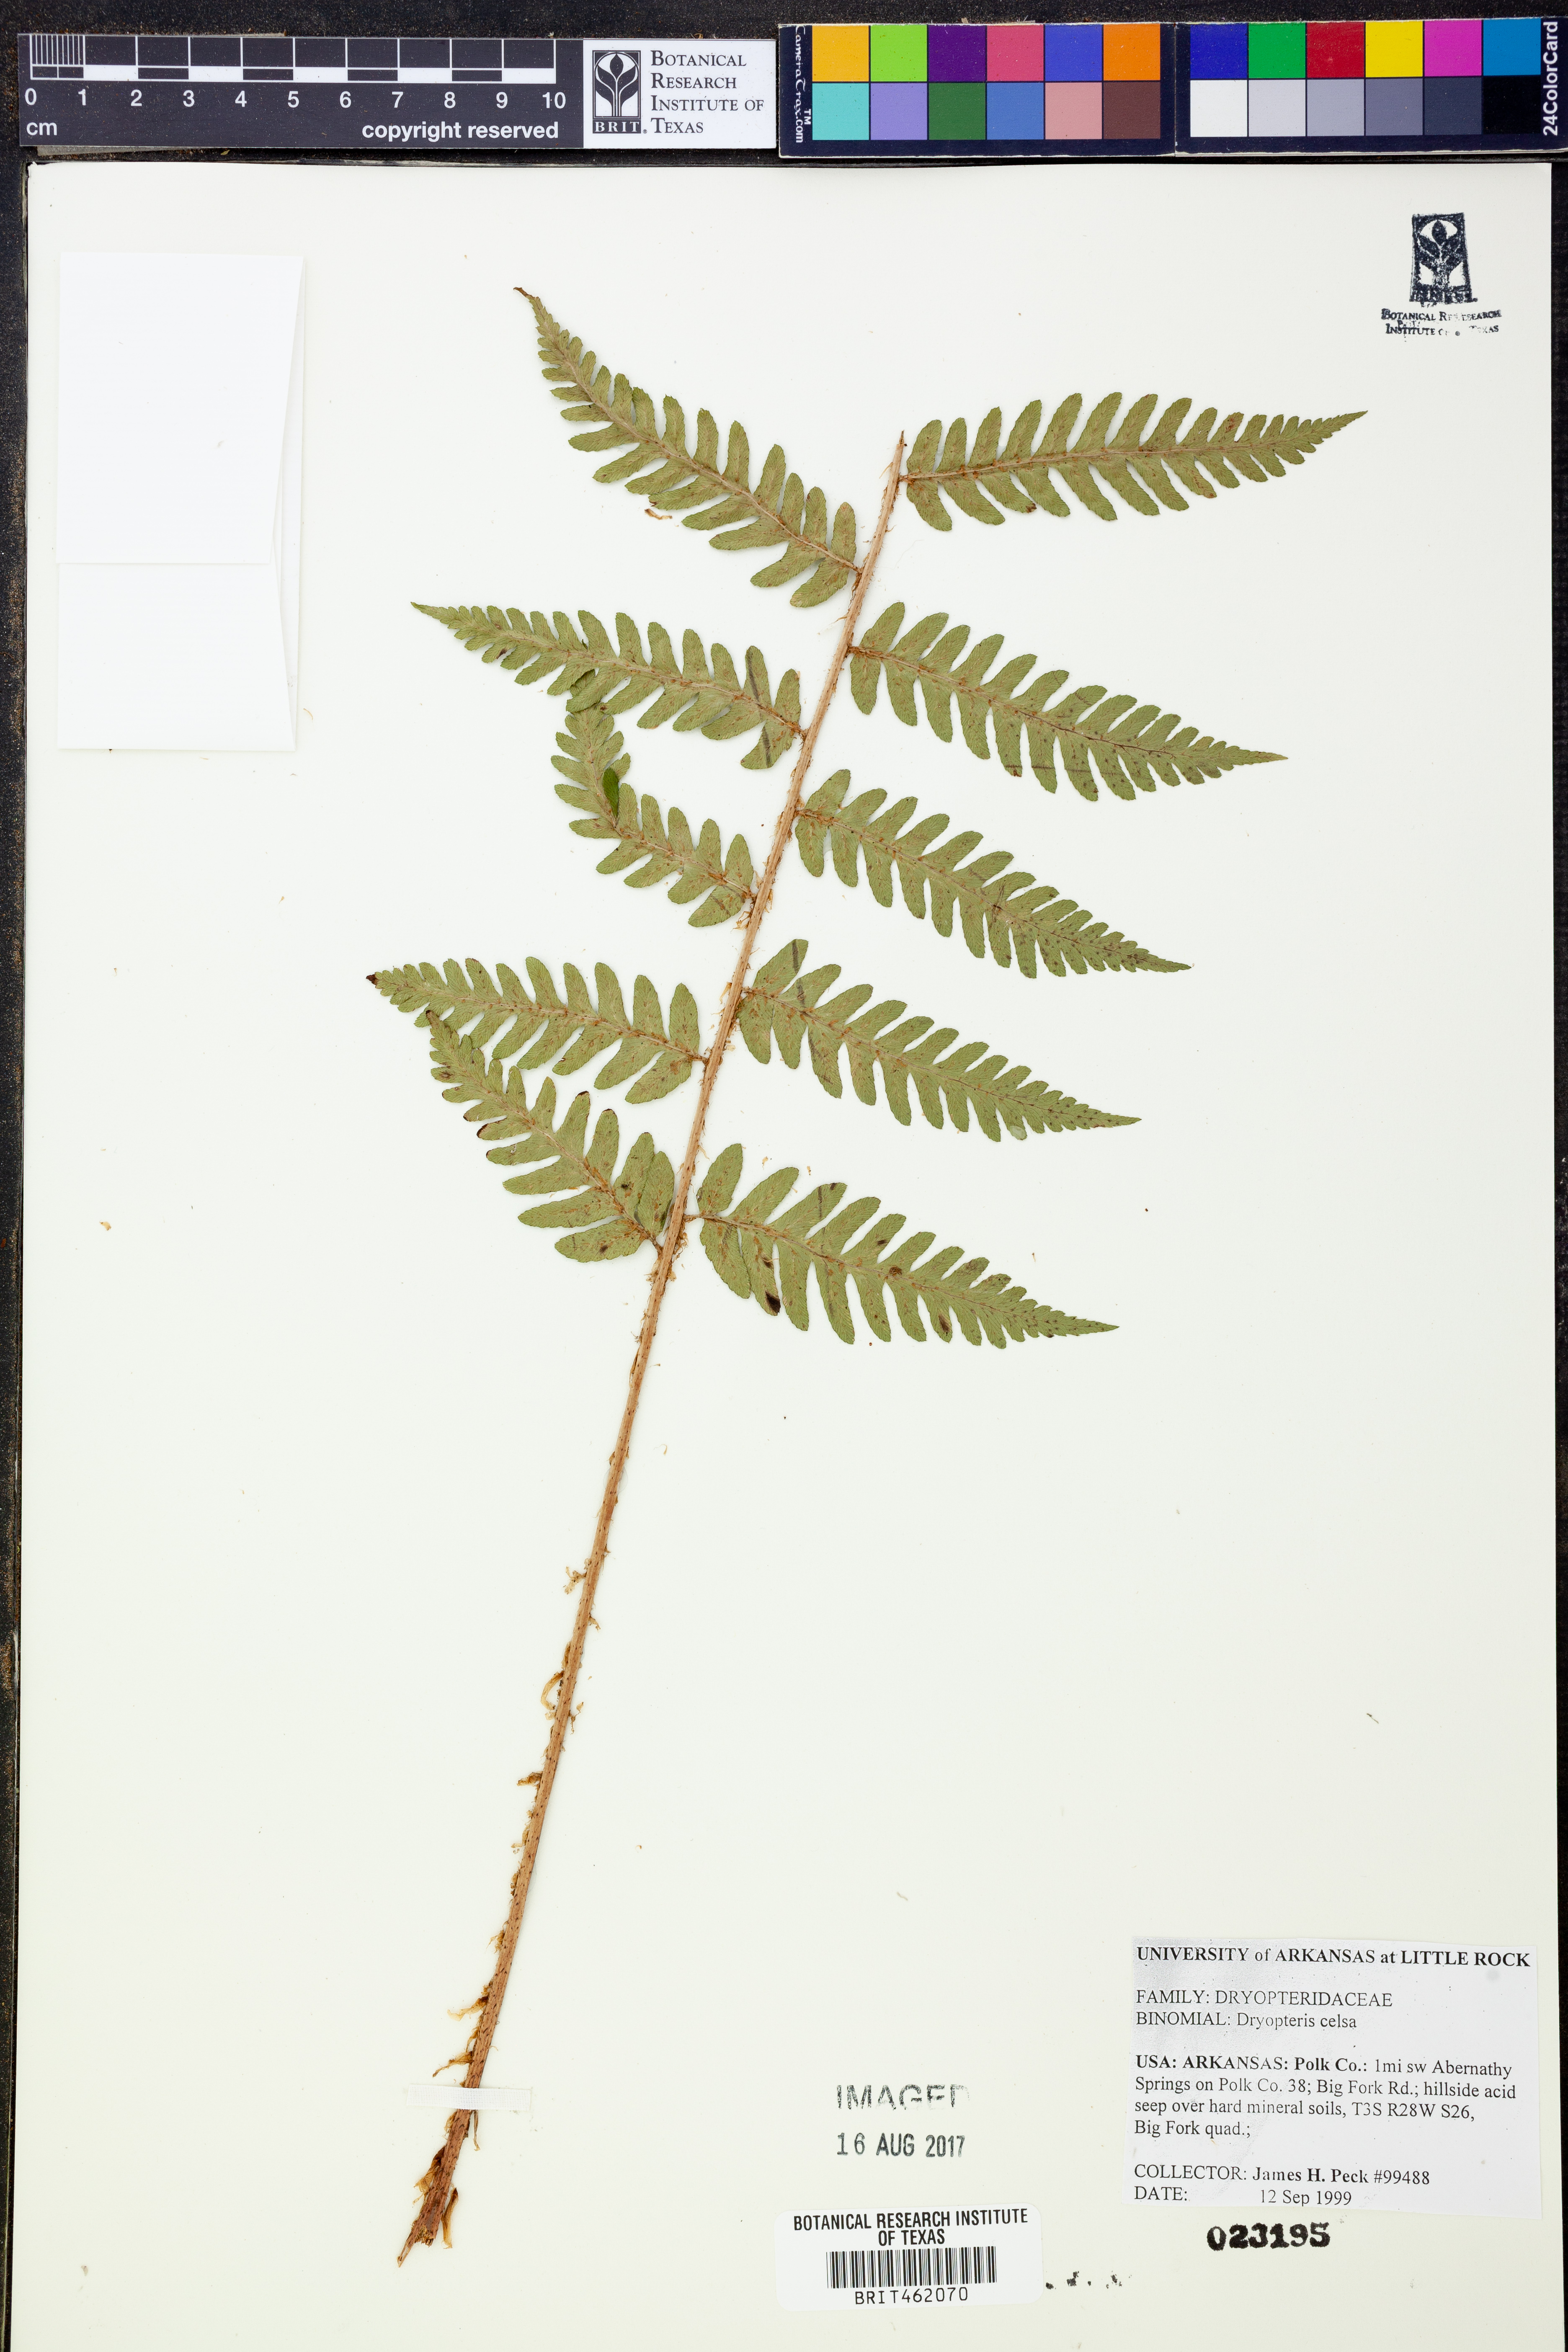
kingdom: Plantae
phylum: Tracheophyta
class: Polypodiopsida
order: Polypodiales
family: Dryopteridaceae
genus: Dryopteris
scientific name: Dryopteris celsa
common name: Log fern
